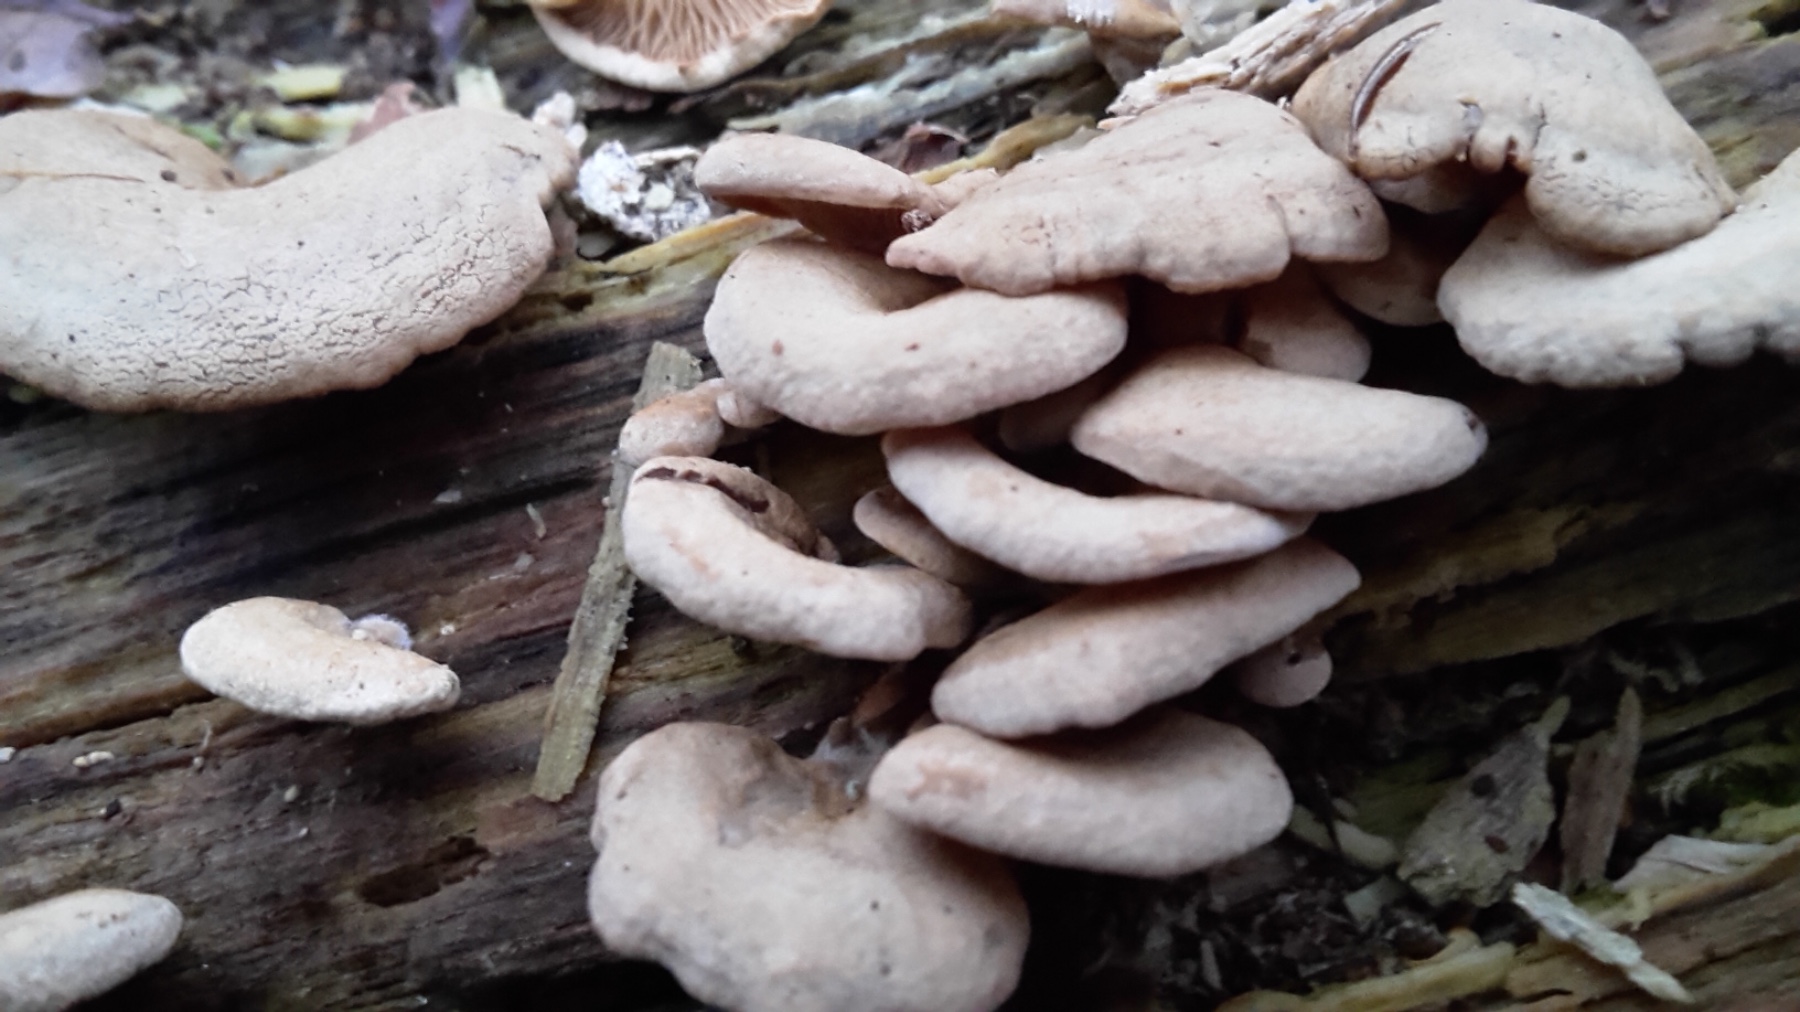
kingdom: Fungi
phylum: Basidiomycota
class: Agaricomycetes
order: Agaricales
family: Mycenaceae
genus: Panellus
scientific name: Panellus stipticus
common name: kliddet epaulethat
